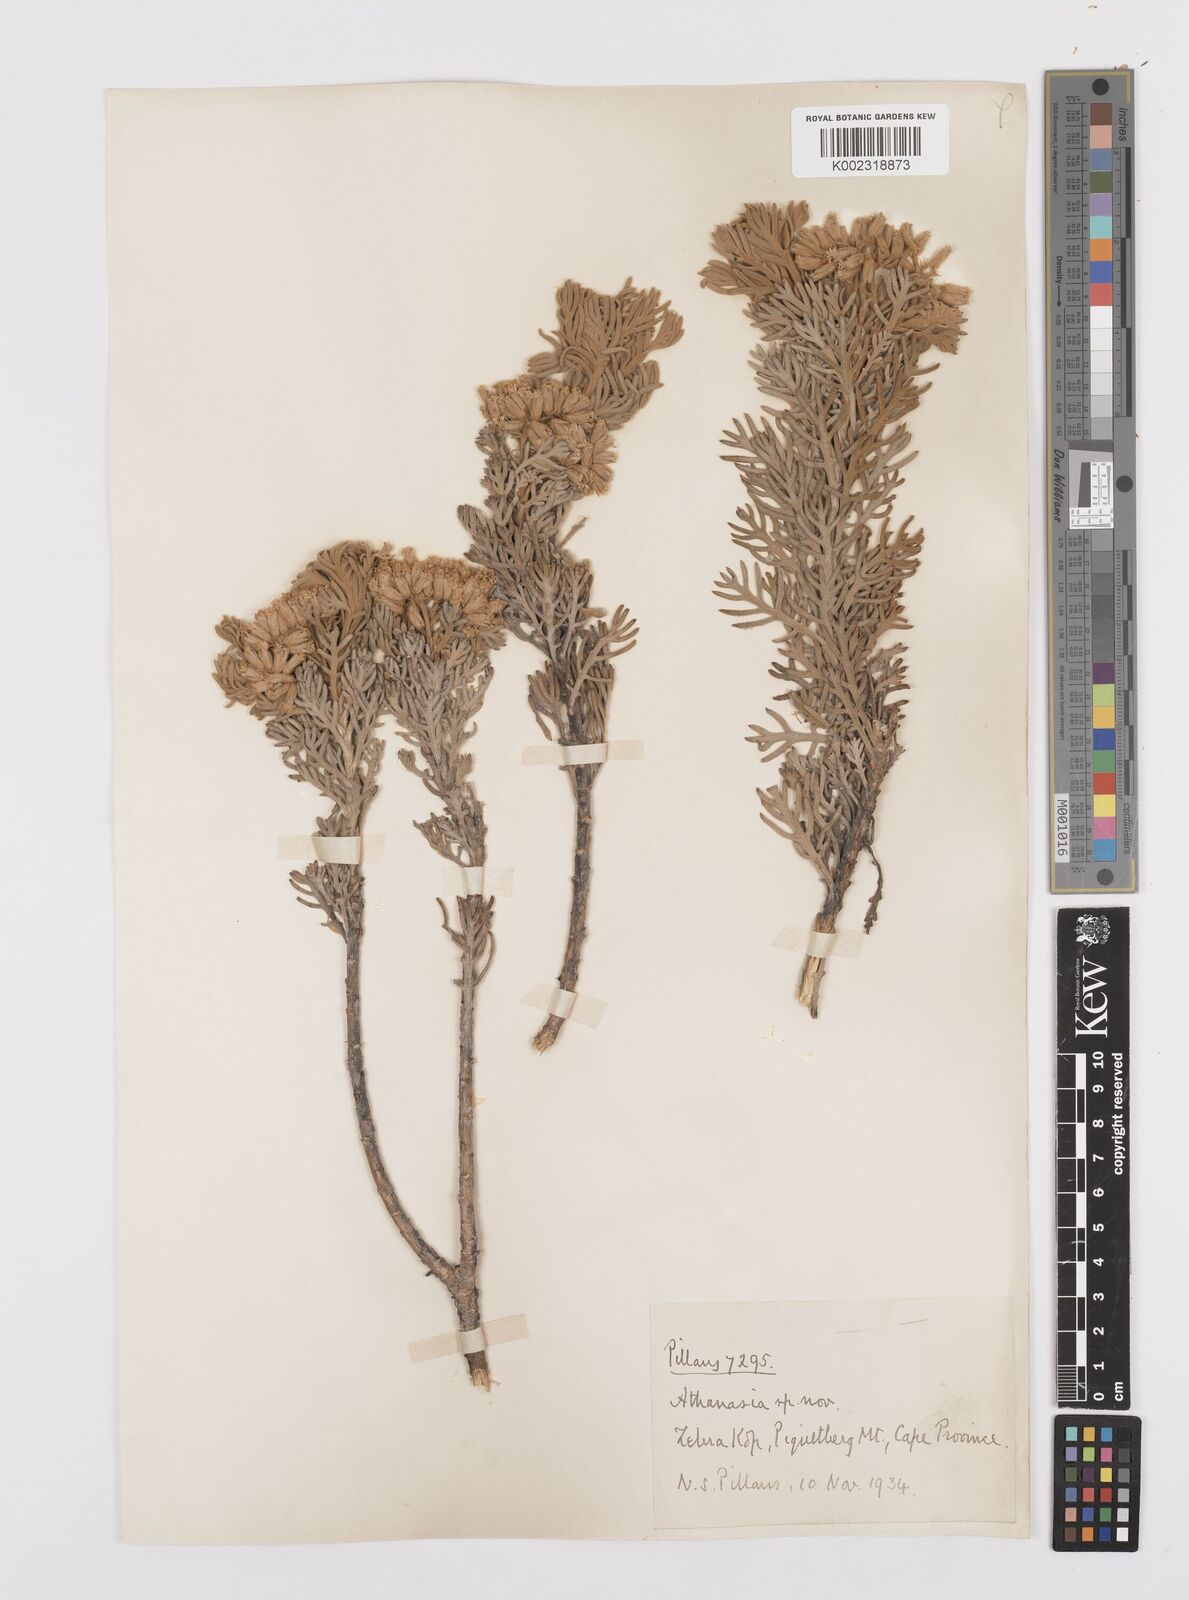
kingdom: Plantae
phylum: Tracheophyta
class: Magnoliopsida
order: Asterales
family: Asteraceae
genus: Hymenolepis
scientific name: Hymenolepis speciosa
